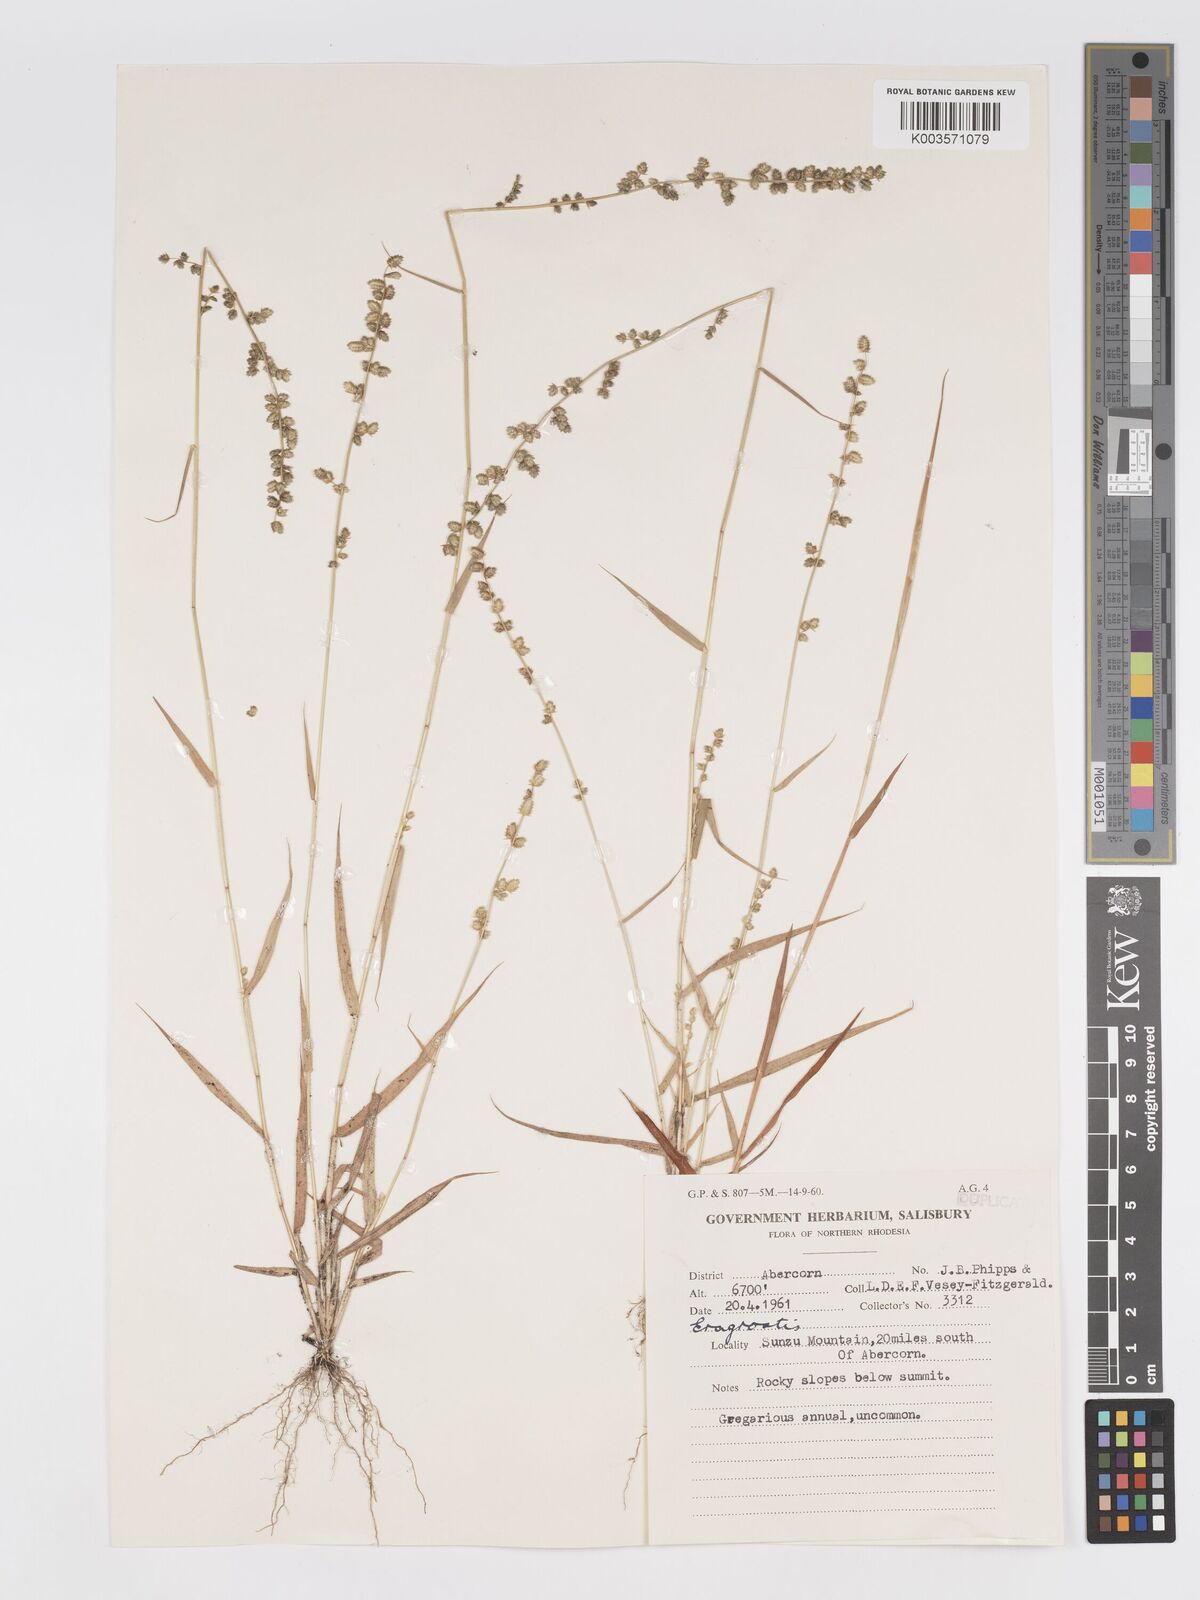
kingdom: Plantae
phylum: Tracheophyta
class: Liliopsida
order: Poales
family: Poaceae
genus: Eragrostis
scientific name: Eragrostis flavicans
